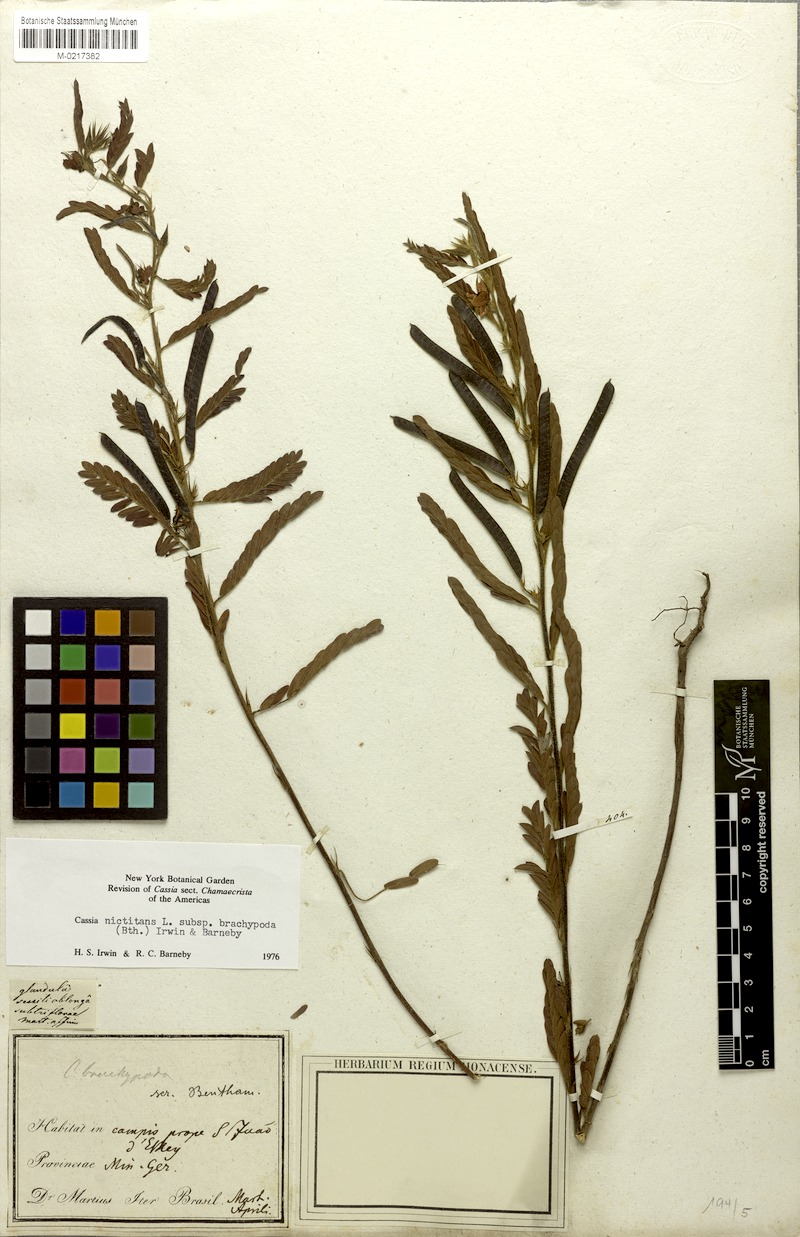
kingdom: Plantae
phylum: Tracheophyta
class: Magnoliopsida
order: Fabales
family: Fabaceae
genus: Chamaecrista
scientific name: Chamaecrista nictitans
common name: Sensitive cassia
